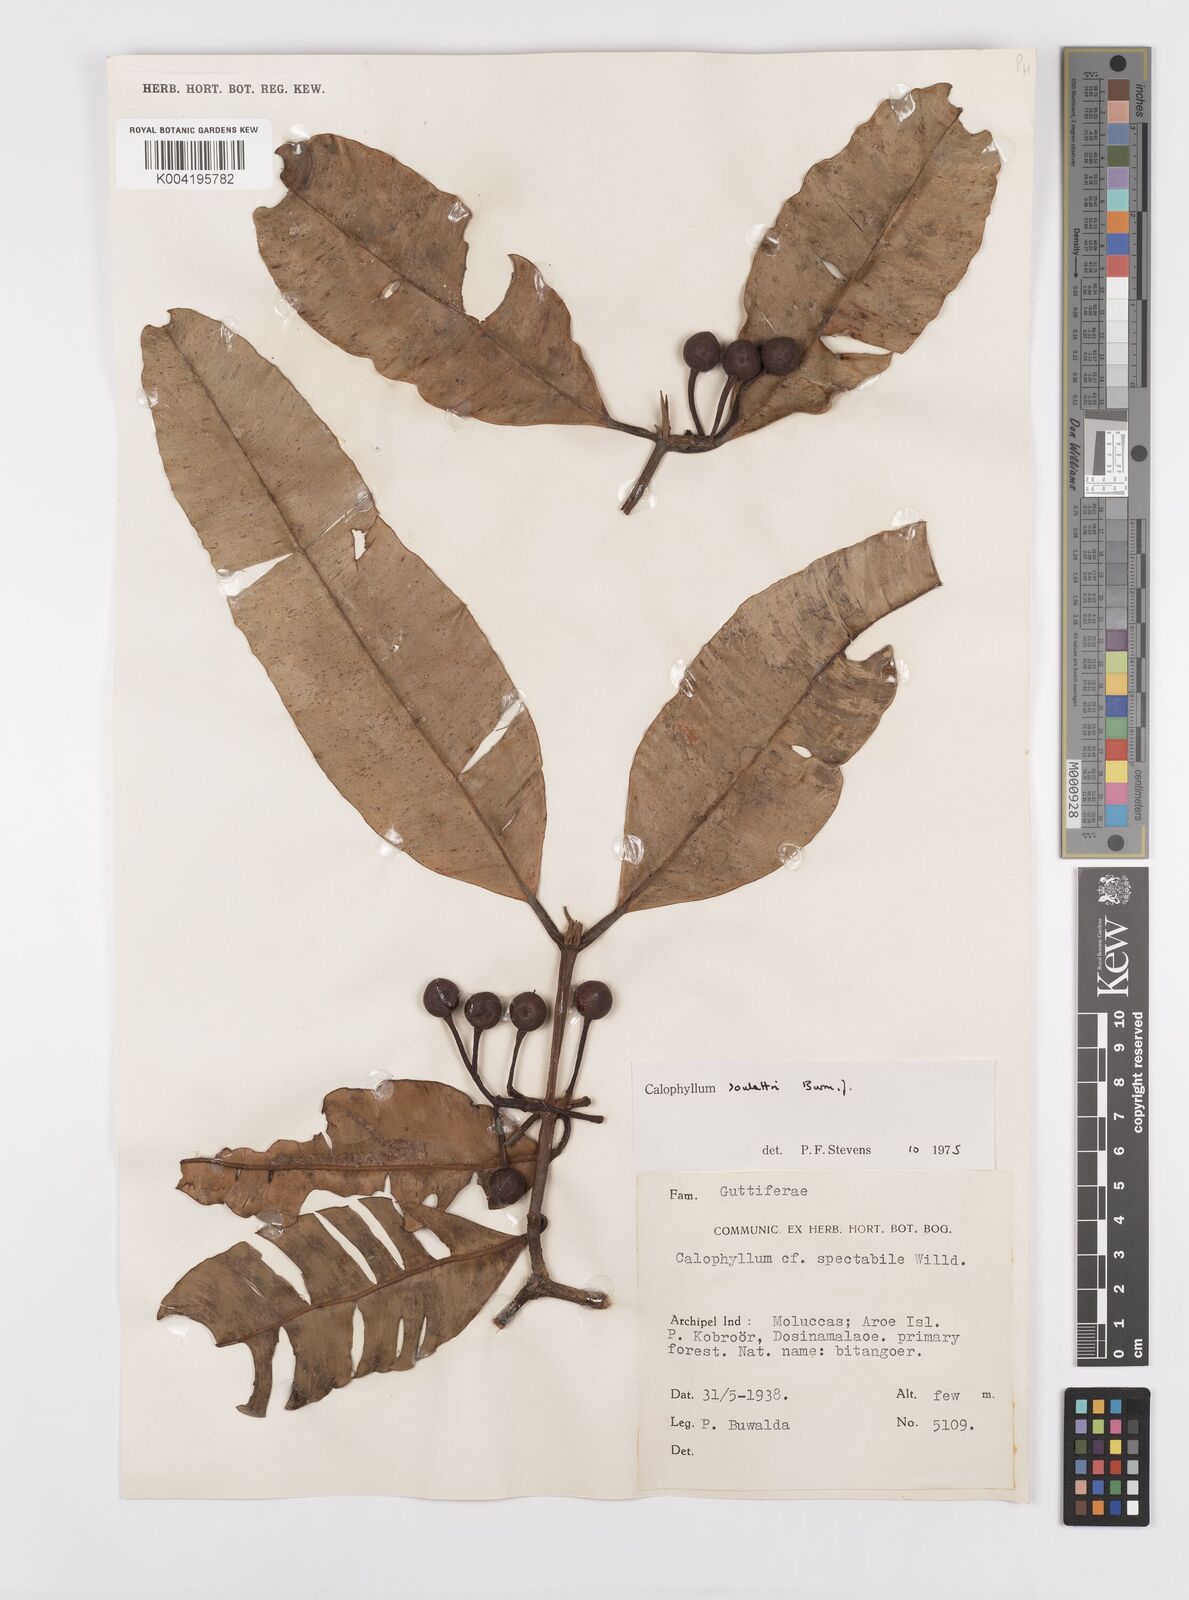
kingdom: Plantae
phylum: Tracheophyta
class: Magnoliopsida
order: Malpighiales
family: Calophyllaceae
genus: Calophyllum
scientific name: Calophyllum soulattri
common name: Bitangoor boonot
